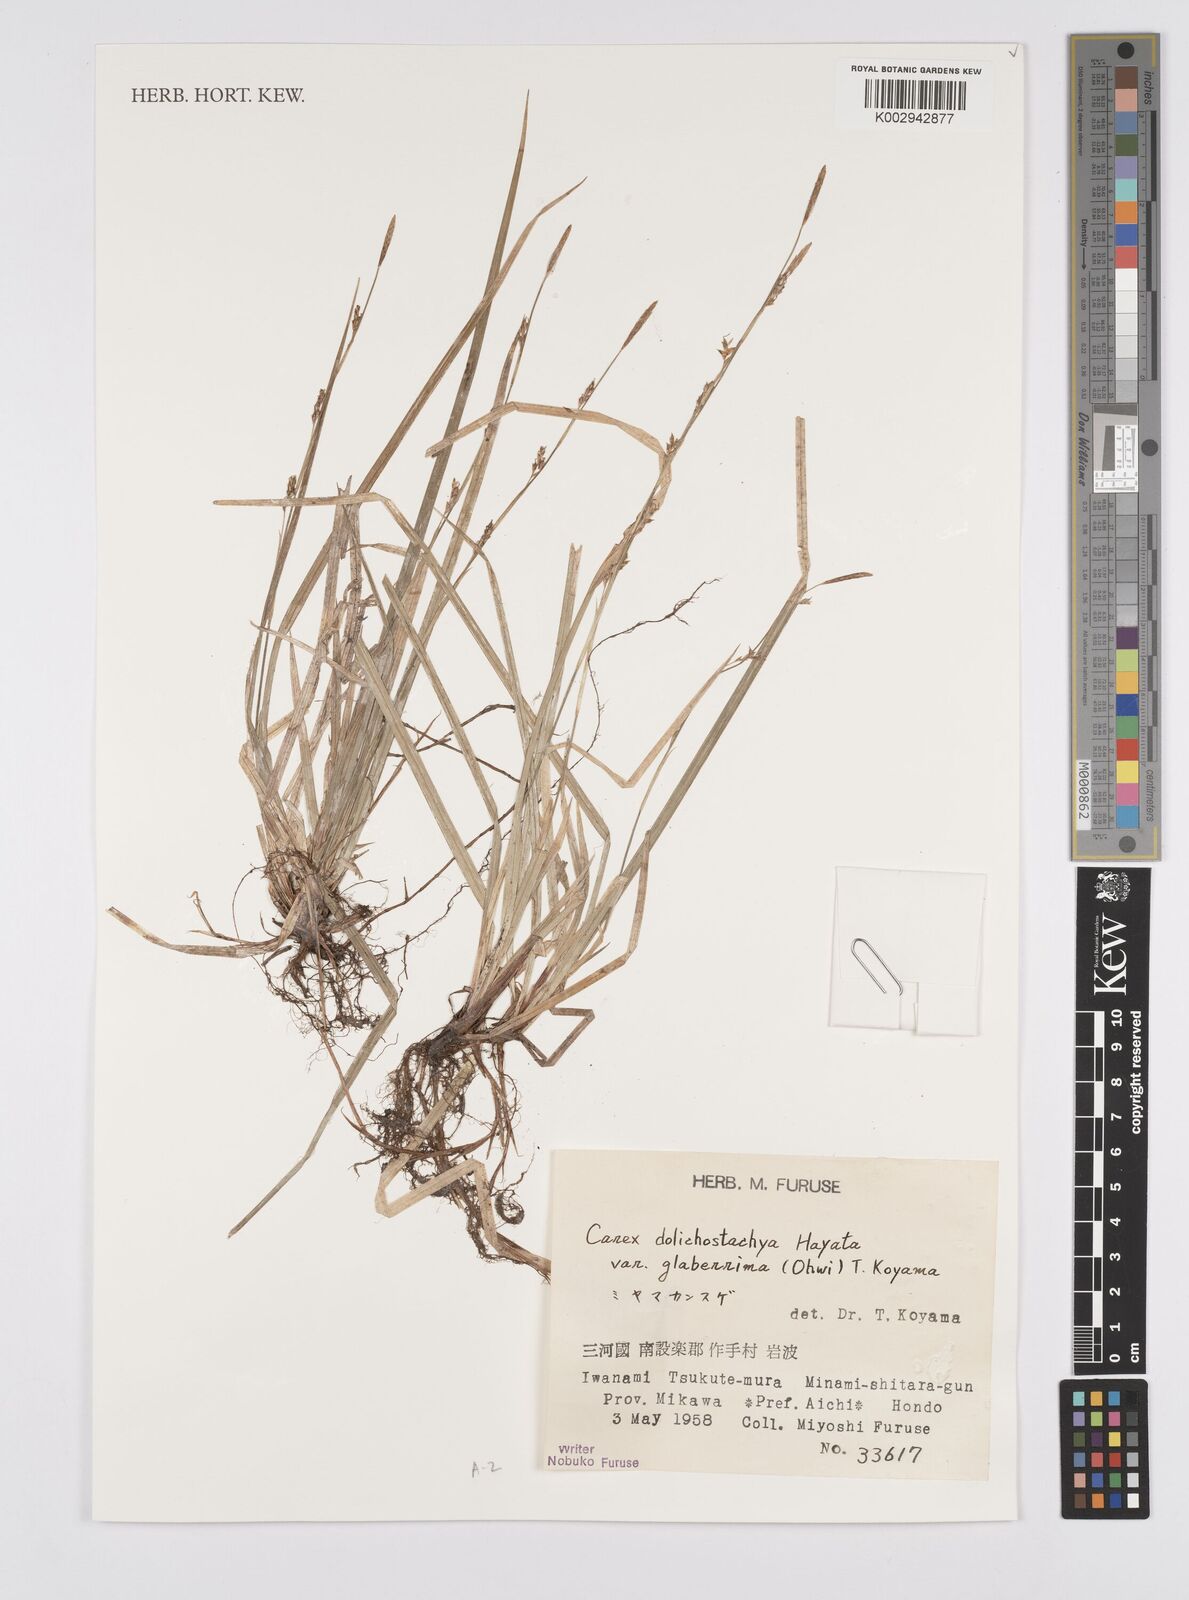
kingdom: Plantae
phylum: Tracheophyta
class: Liliopsida
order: Poales
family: Cyperaceae
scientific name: Cyperaceae
